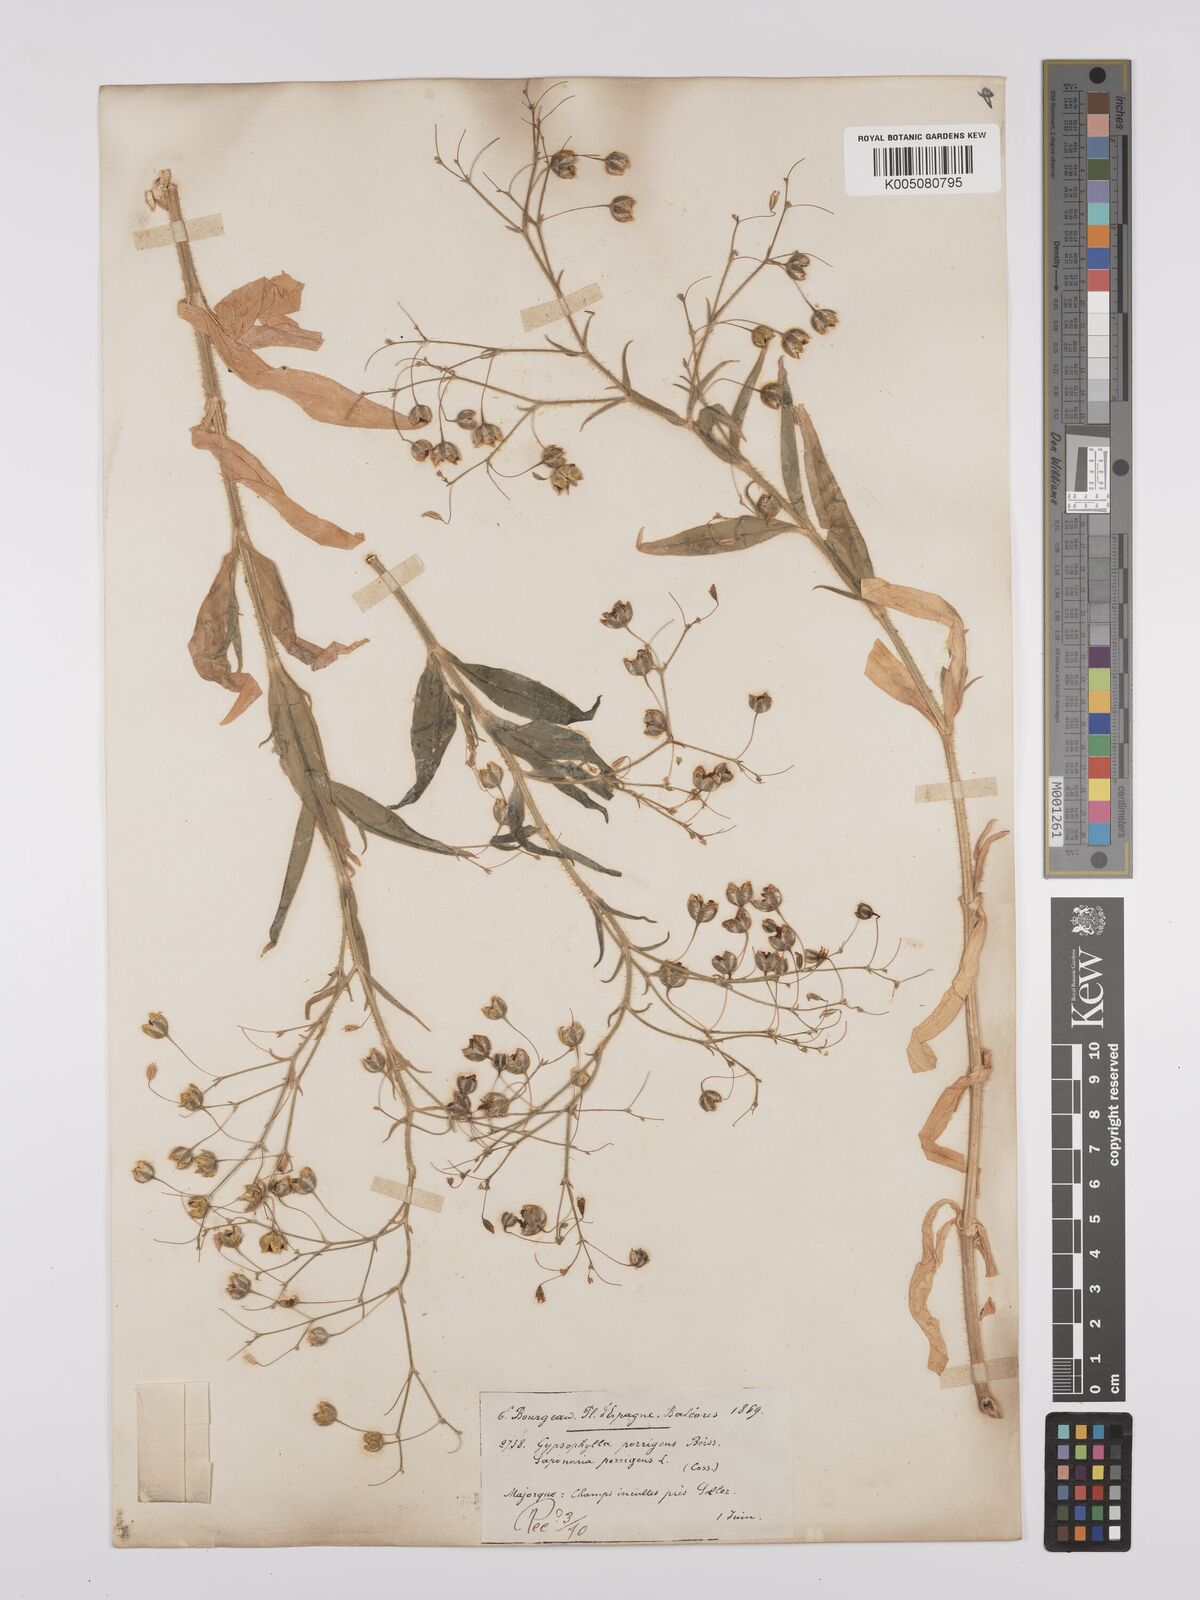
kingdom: Plantae
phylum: Tracheophyta
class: Magnoliopsida
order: Caryophyllales
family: Caryophyllaceae
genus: Gypsophila
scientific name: Gypsophila pilosa
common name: Turkish baby's-breath
